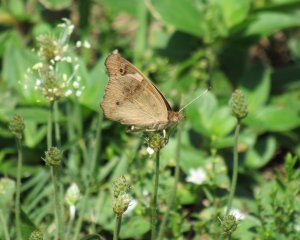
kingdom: Animalia
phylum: Arthropoda
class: Insecta
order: Lepidoptera
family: Nymphalidae
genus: Junonia
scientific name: Junonia coenia
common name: Common Buckeye
